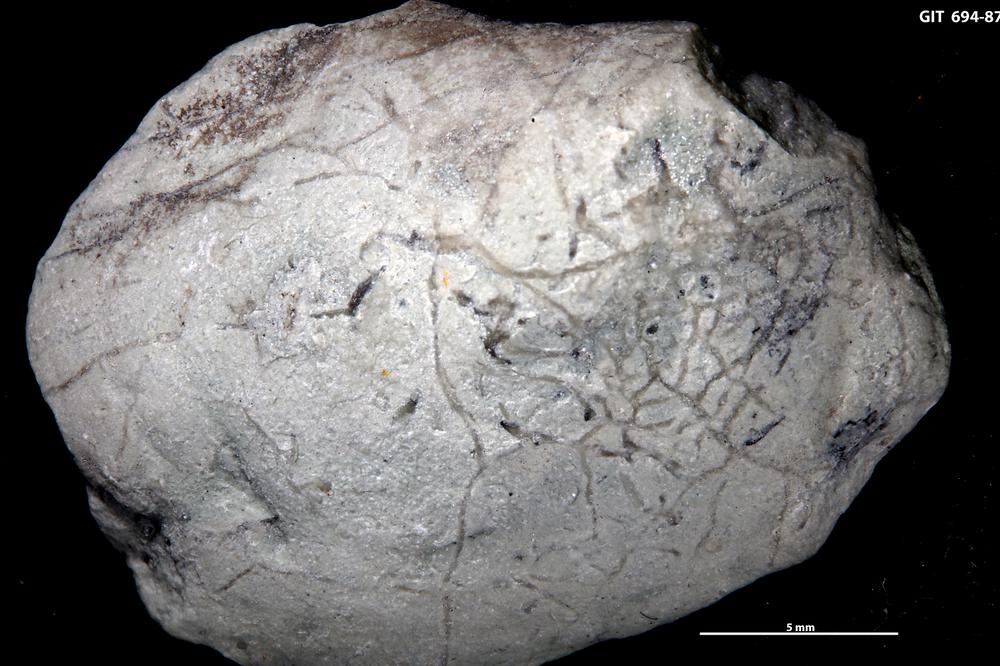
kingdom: Animalia
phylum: Annelida
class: Polychaeta
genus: Arachnostega
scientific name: Arachnostega gastrochaenae
